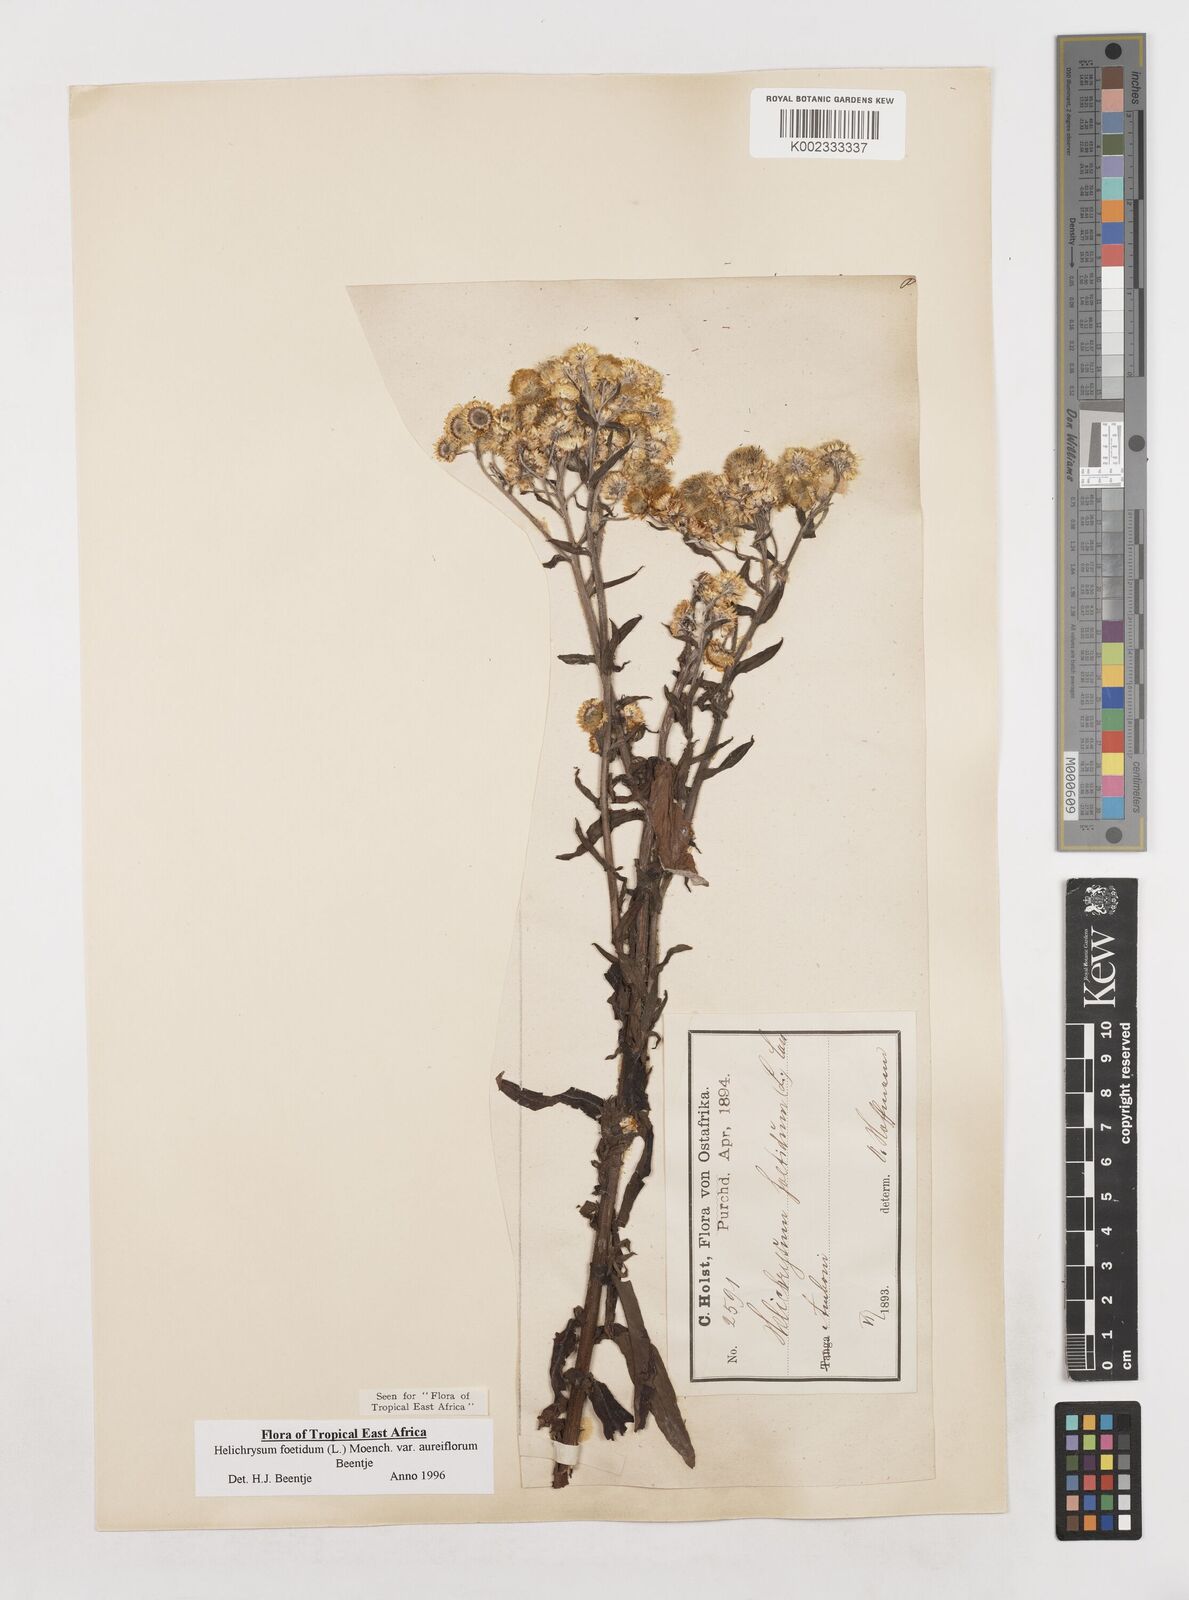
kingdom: Plantae
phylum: Tracheophyta
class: Magnoliopsida
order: Asterales
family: Asteraceae
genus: Helichrysum
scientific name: Helichrysum foetidum
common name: Stinking everlasting
